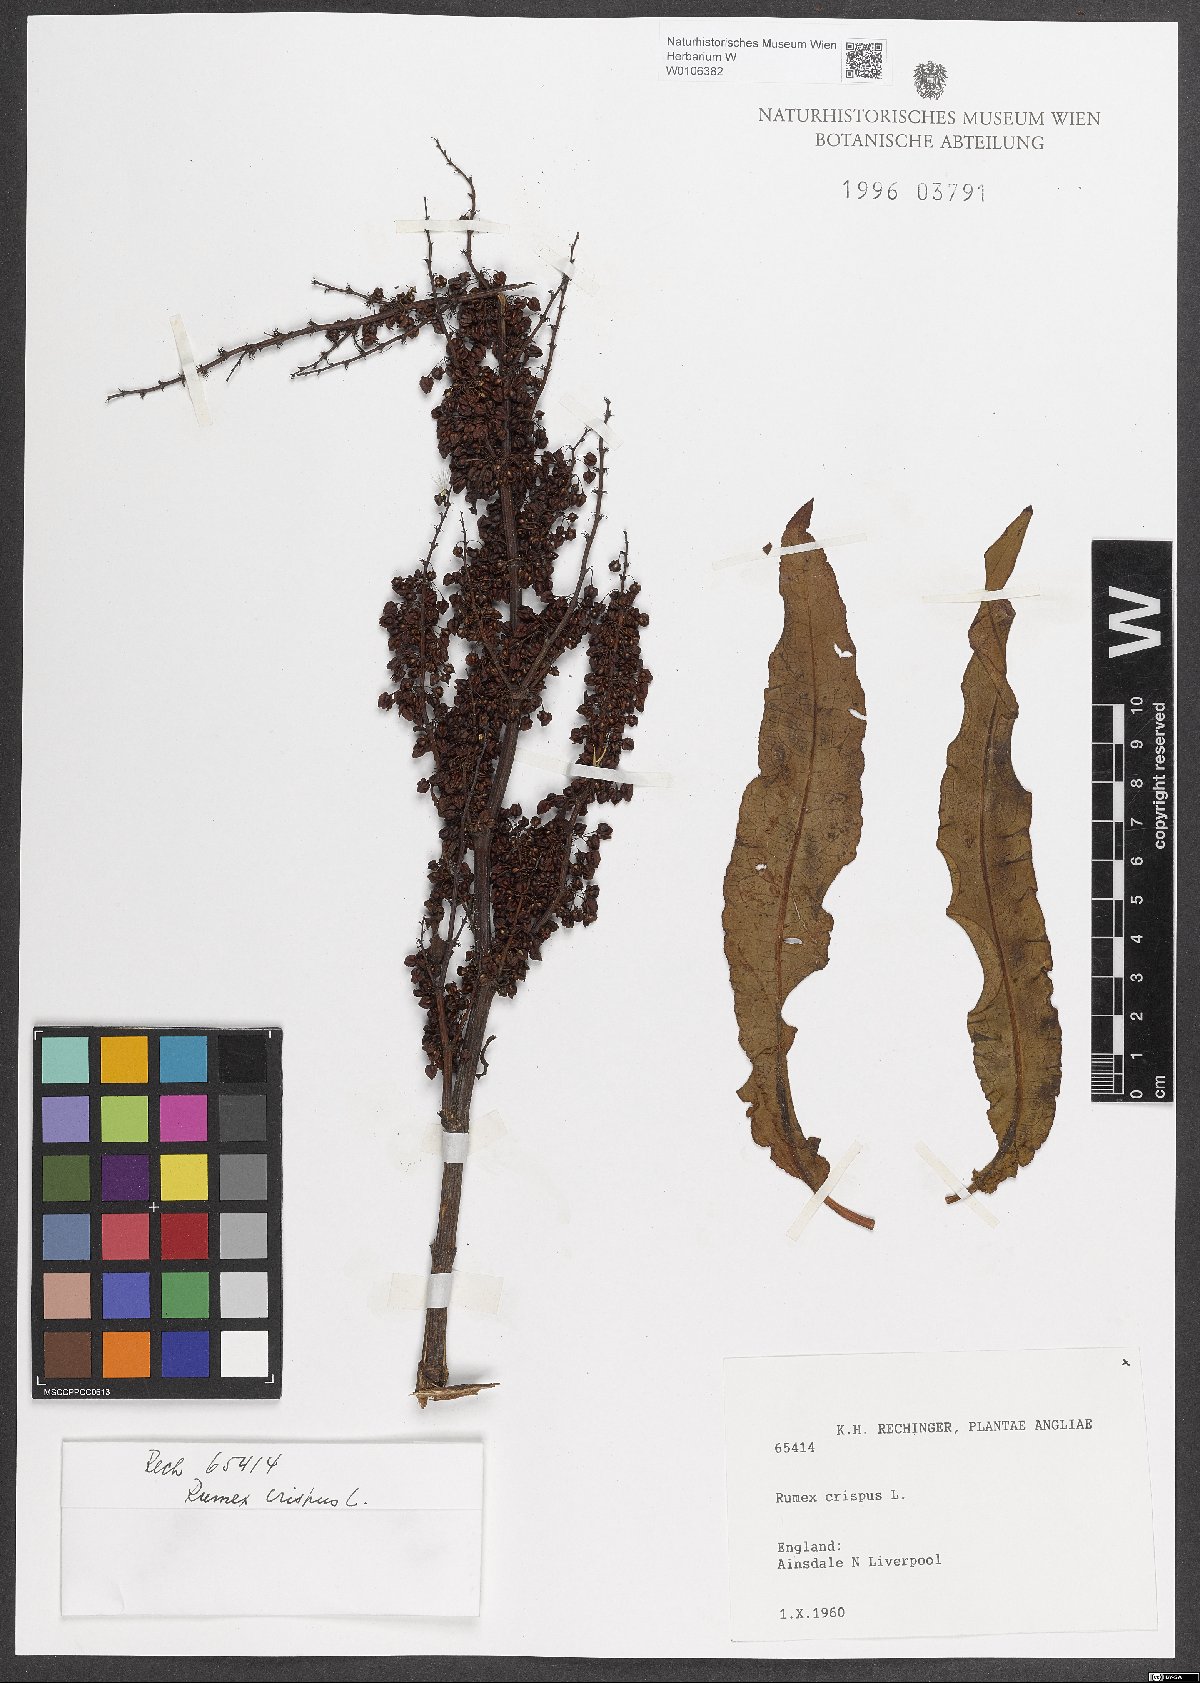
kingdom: Plantae
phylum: Tracheophyta
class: Magnoliopsida
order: Caryophyllales
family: Polygonaceae
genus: Rumex
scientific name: Rumex crispus
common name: Curled dock
